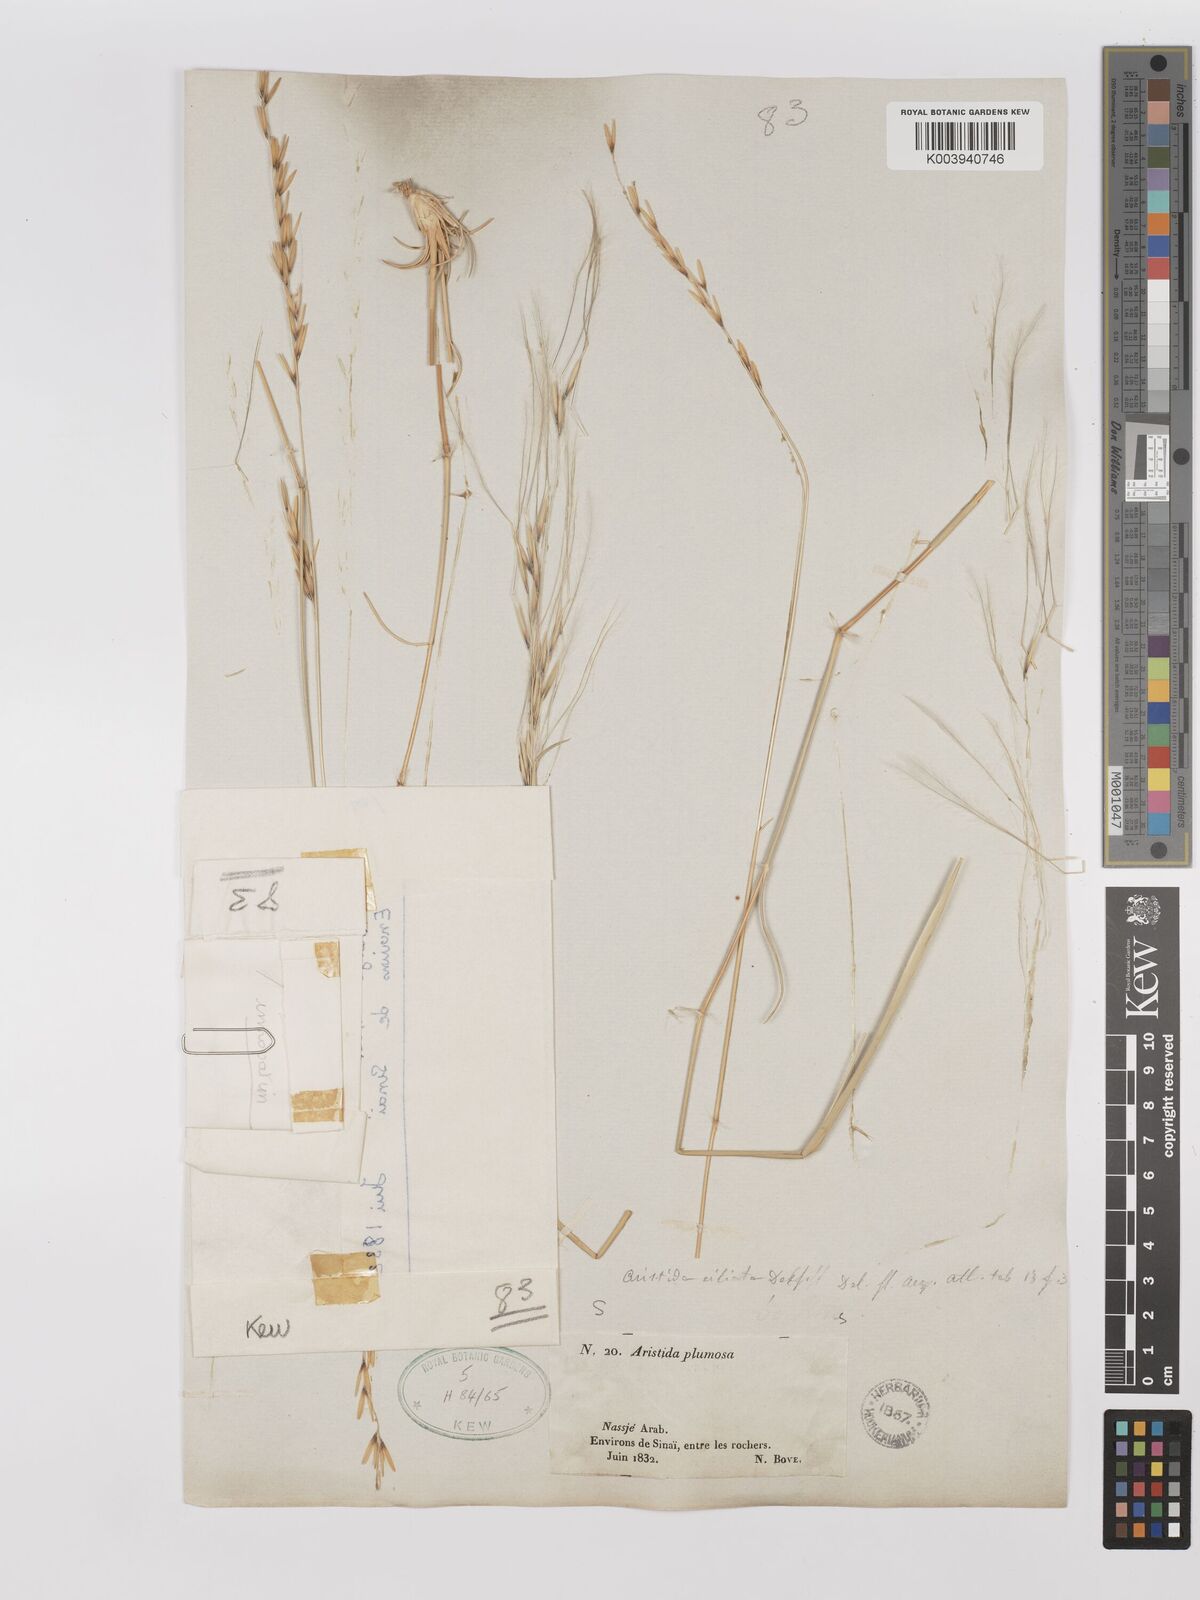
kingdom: Plantae
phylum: Tracheophyta
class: Liliopsida
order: Poales
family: Poaceae
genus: Stipagrostis
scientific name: Stipagrostis plumosa
